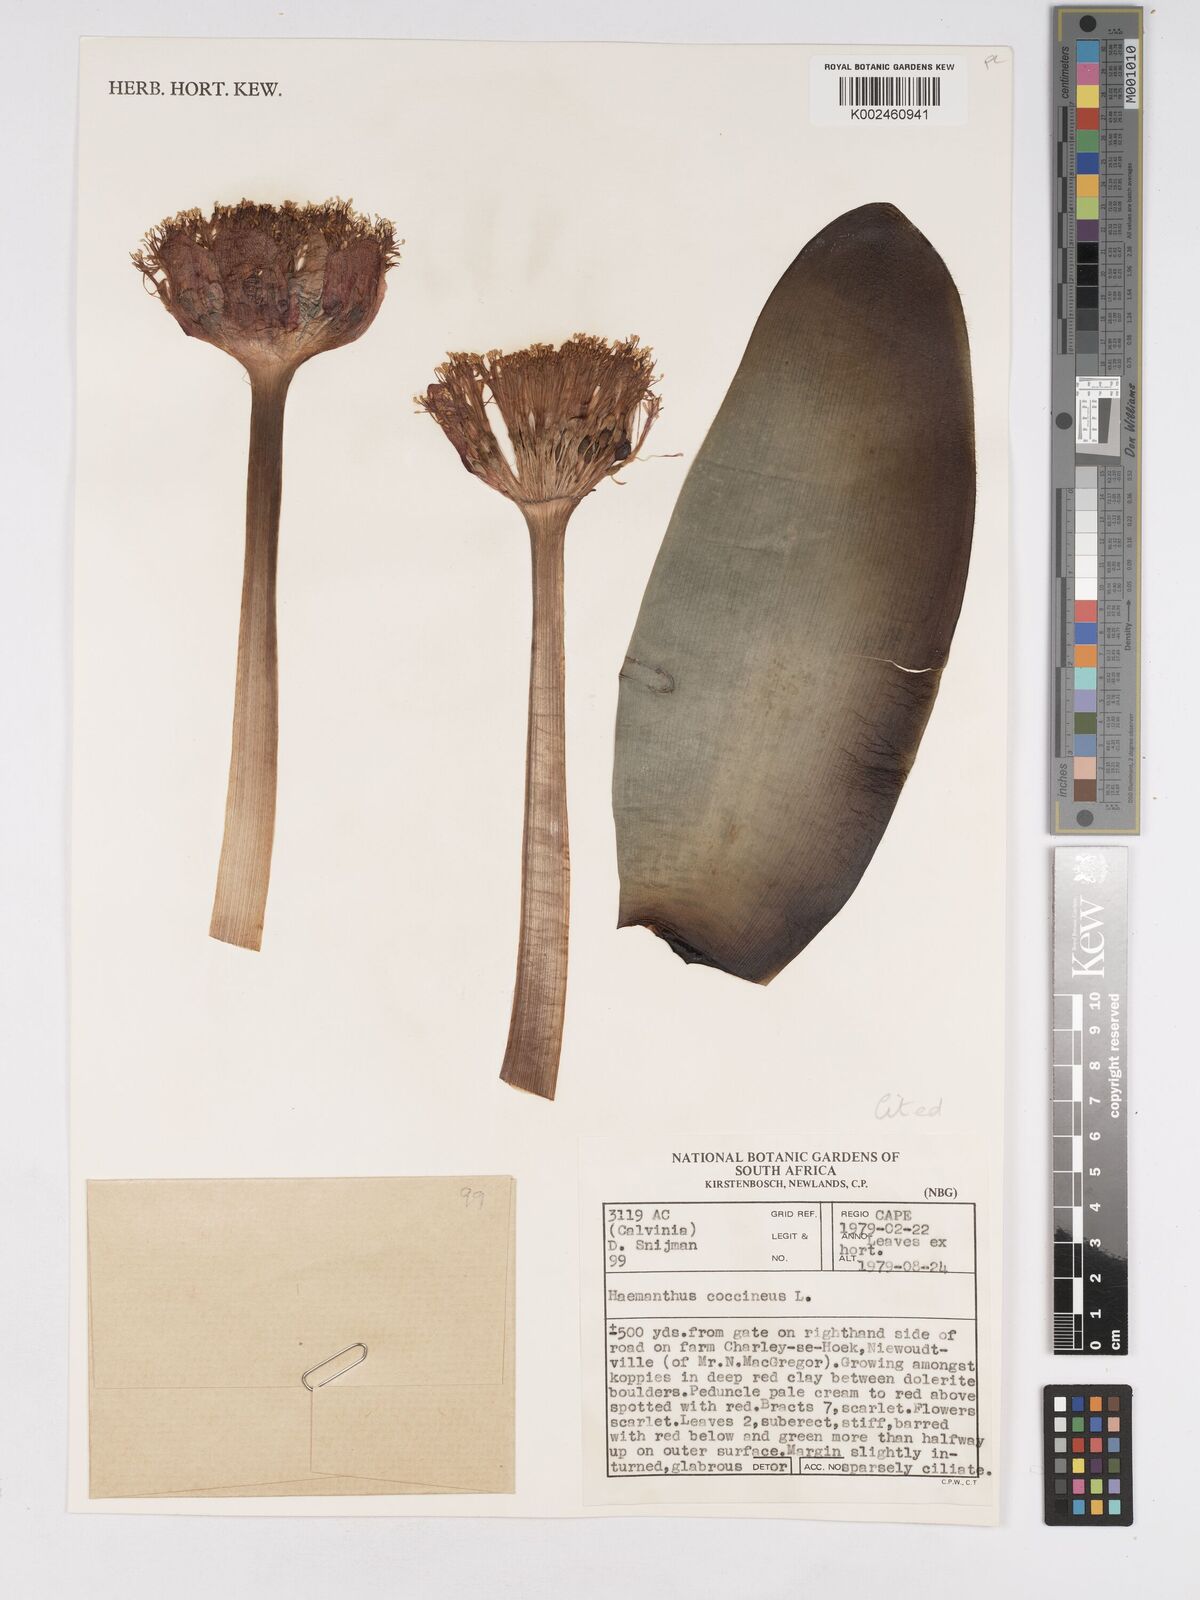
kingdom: Plantae
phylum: Tracheophyta
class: Liliopsida
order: Asparagales
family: Amaryllidaceae
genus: Haemanthus
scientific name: Haemanthus coccineus
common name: Cape-tulip
